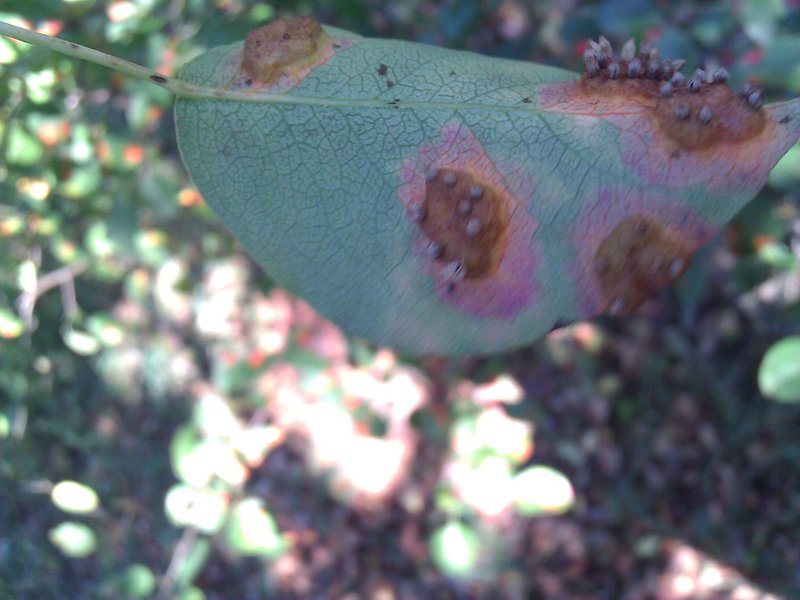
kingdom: Fungi
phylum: Basidiomycota
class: Pucciniomycetes
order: Pucciniales
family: Gymnosporangiaceae
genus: Gymnosporangium
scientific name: Gymnosporangium sabinae
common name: Pear trellis rust fungus
